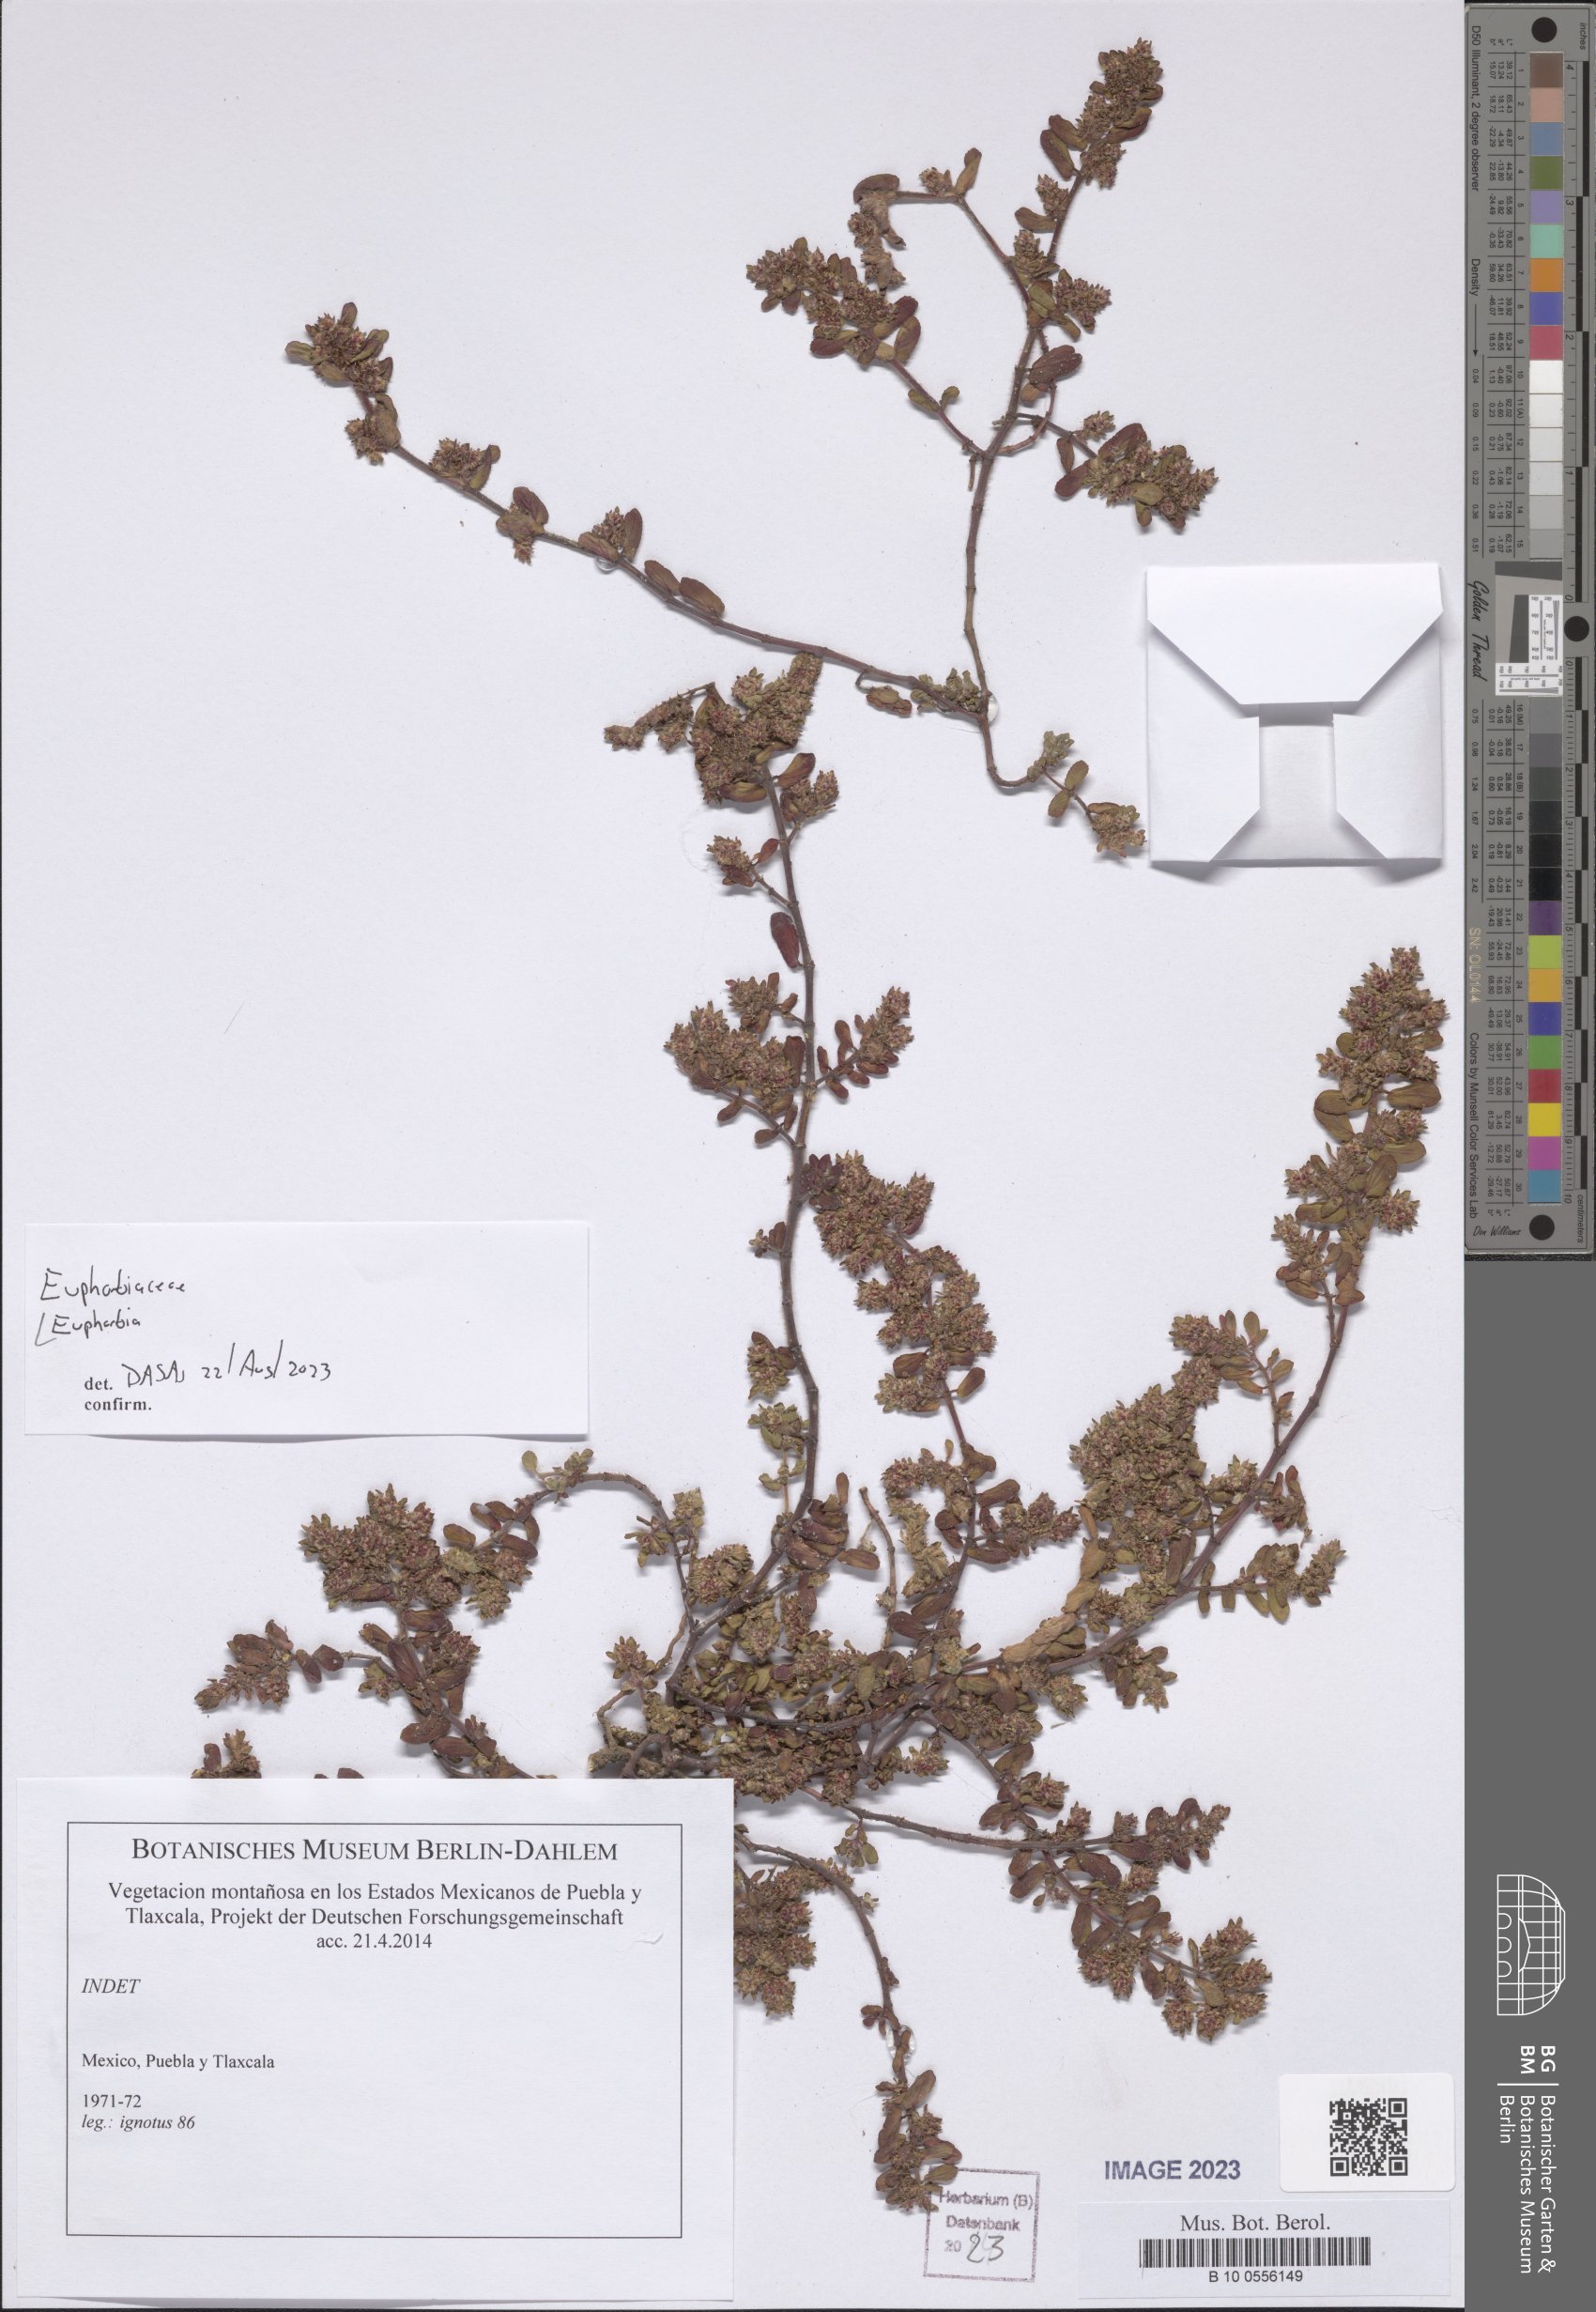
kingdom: Plantae
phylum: Tracheophyta
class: Magnoliopsida
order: Malpighiales
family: Euphorbiaceae
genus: Euphorbia
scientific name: Euphorbia
